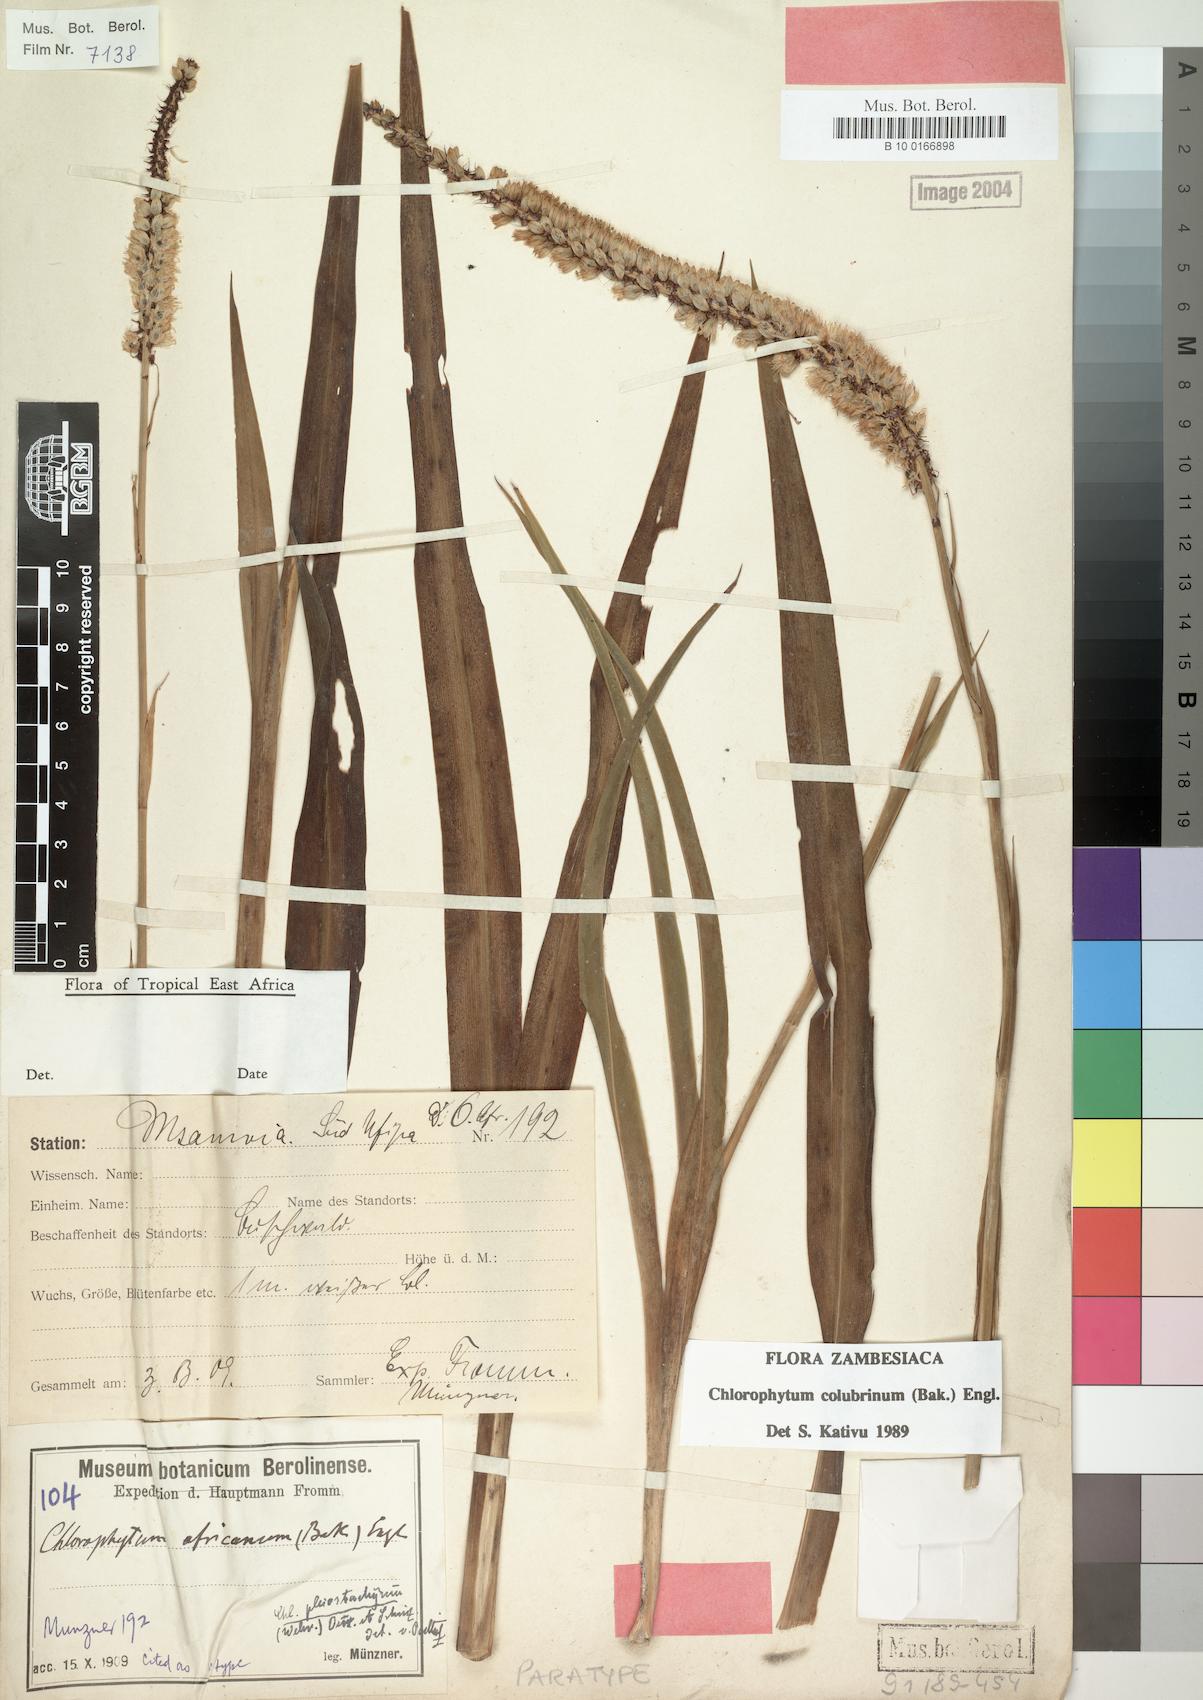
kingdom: Plantae
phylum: Tracheophyta
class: Liliopsida
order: Asparagales
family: Asparagaceae
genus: Chlorophytum
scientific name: Chlorophytum colubrinum
